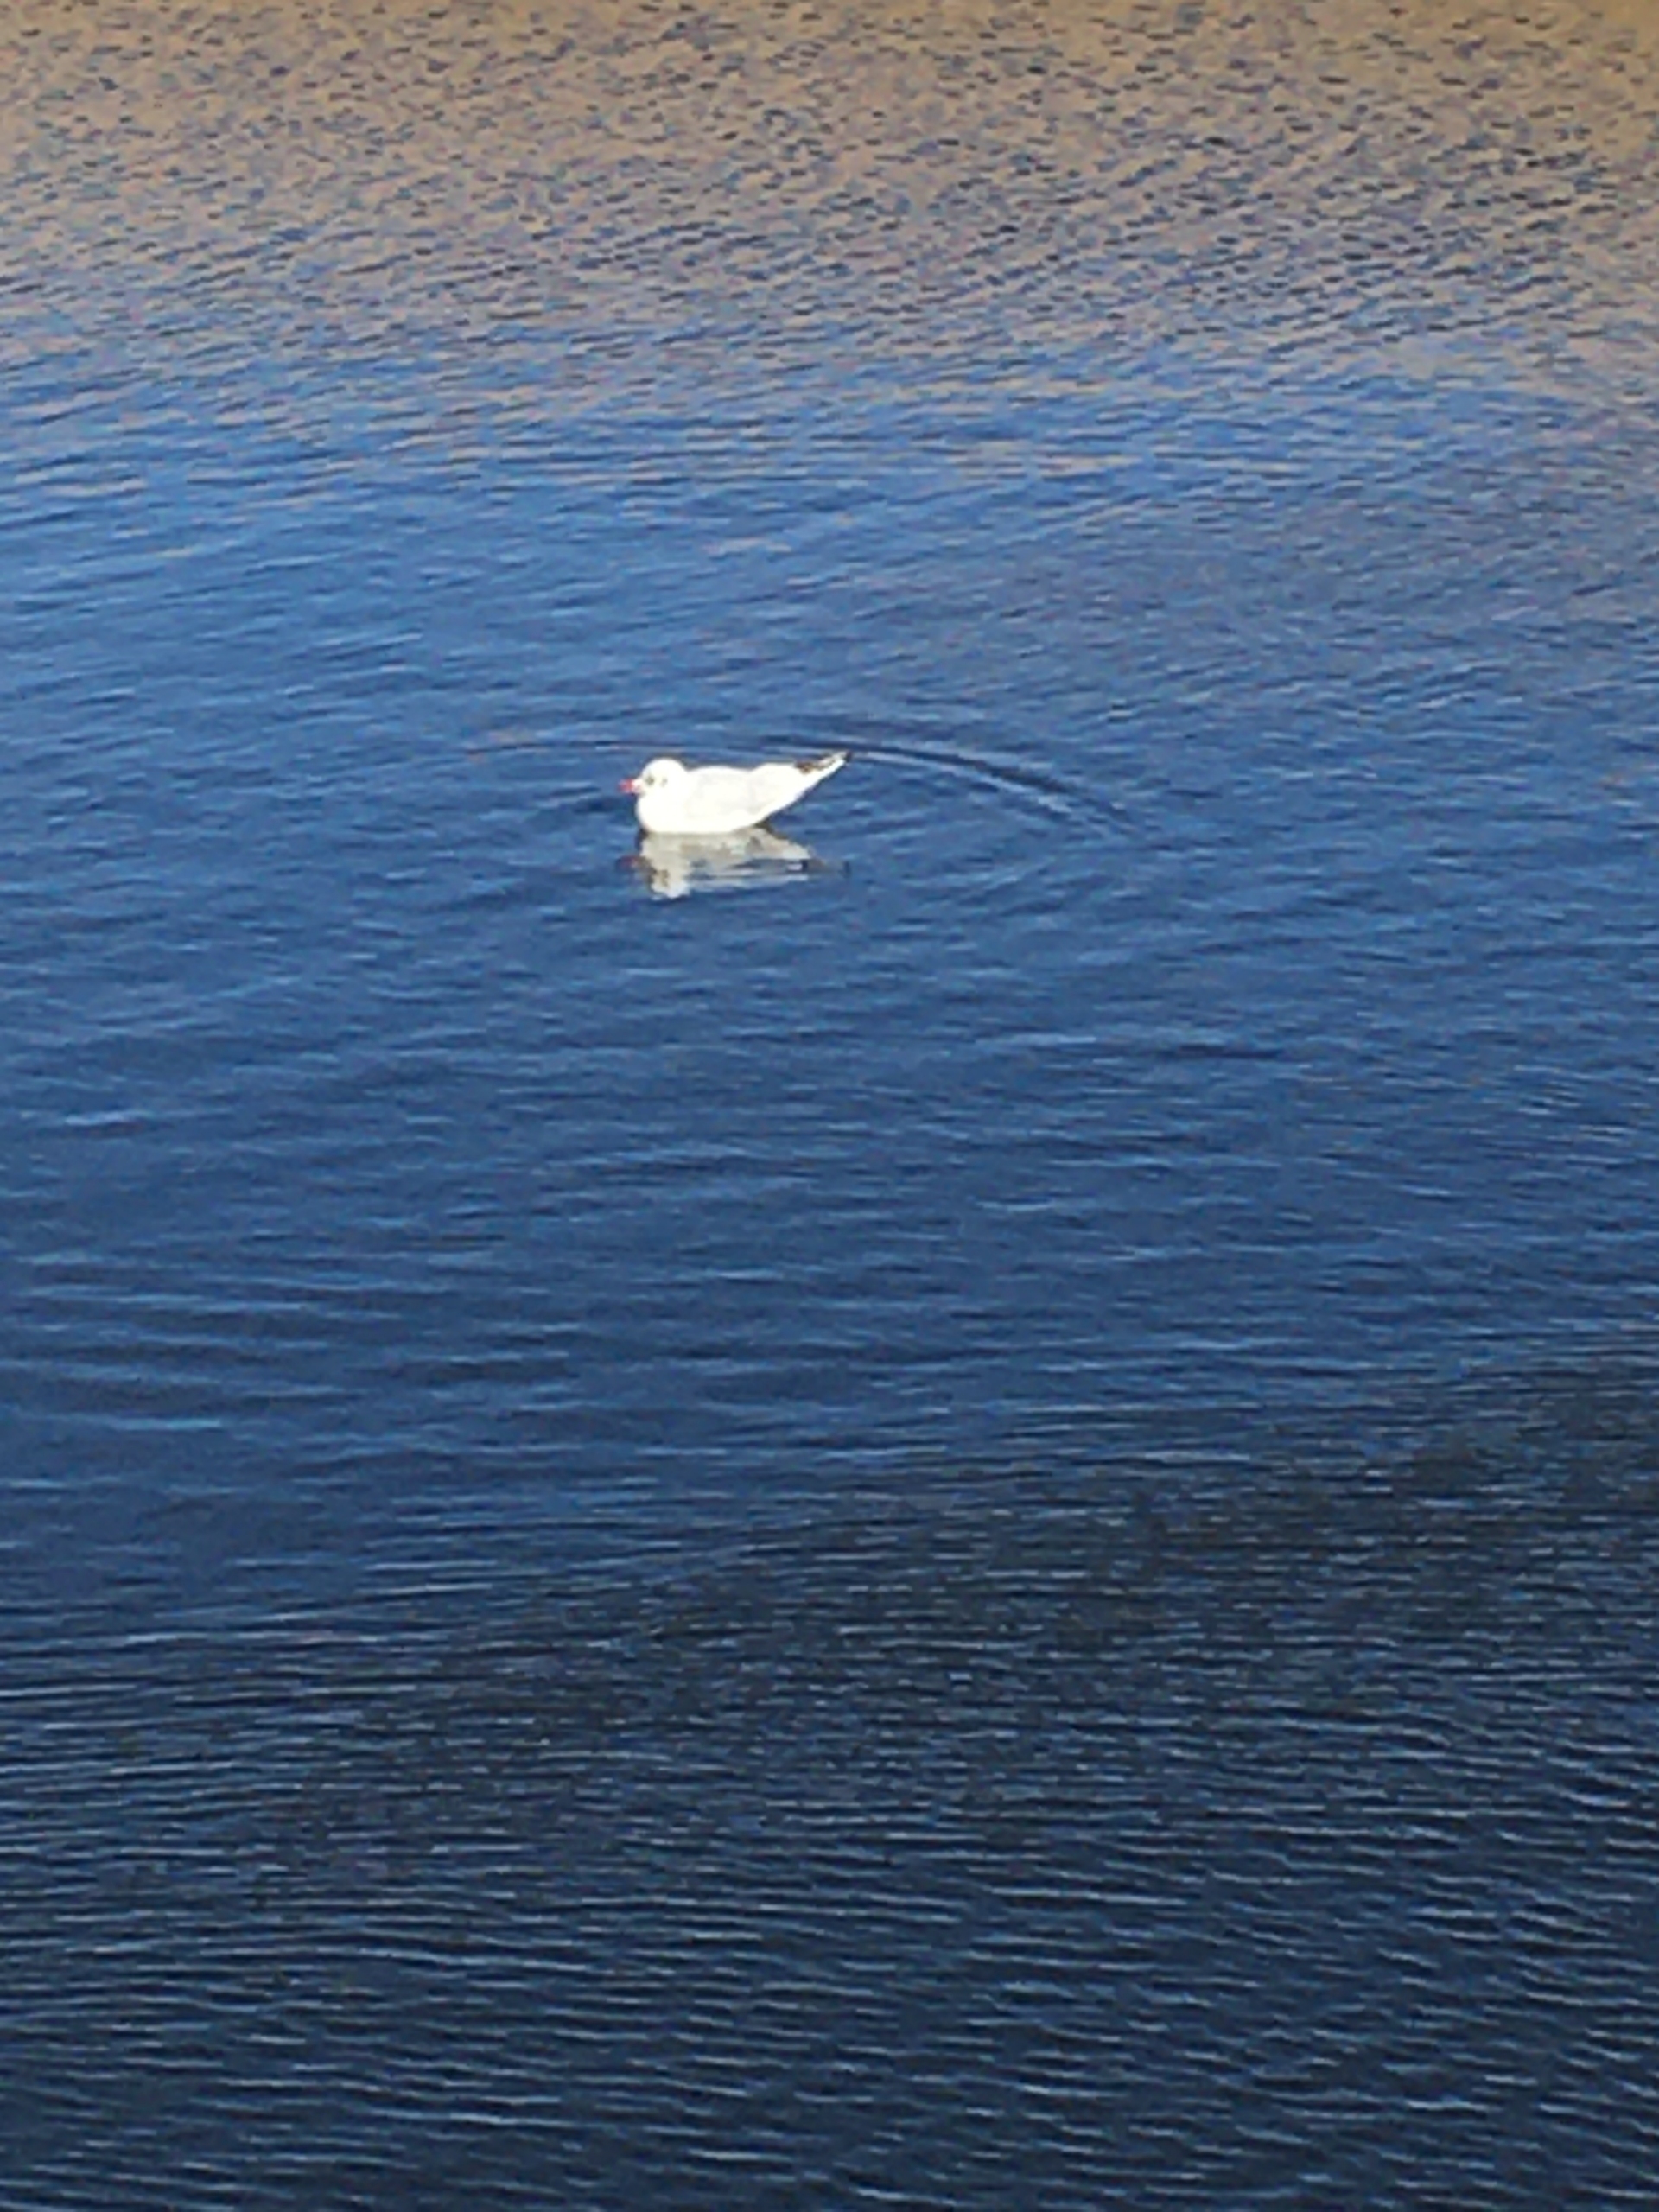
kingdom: Animalia
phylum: Chordata
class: Aves
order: Charadriiformes
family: Laridae
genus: Chroicocephalus
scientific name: Chroicocephalus ridibundus
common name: Hættemåge
